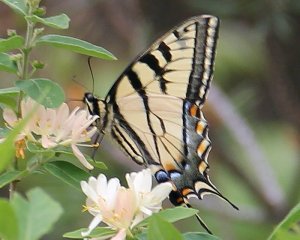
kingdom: Animalia
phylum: Arthropoda
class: Insecta
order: Lepidoptera
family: Papilionidae
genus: Pterourus
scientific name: Pterourus canadensis
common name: Canadian Tiger Swallowtail
